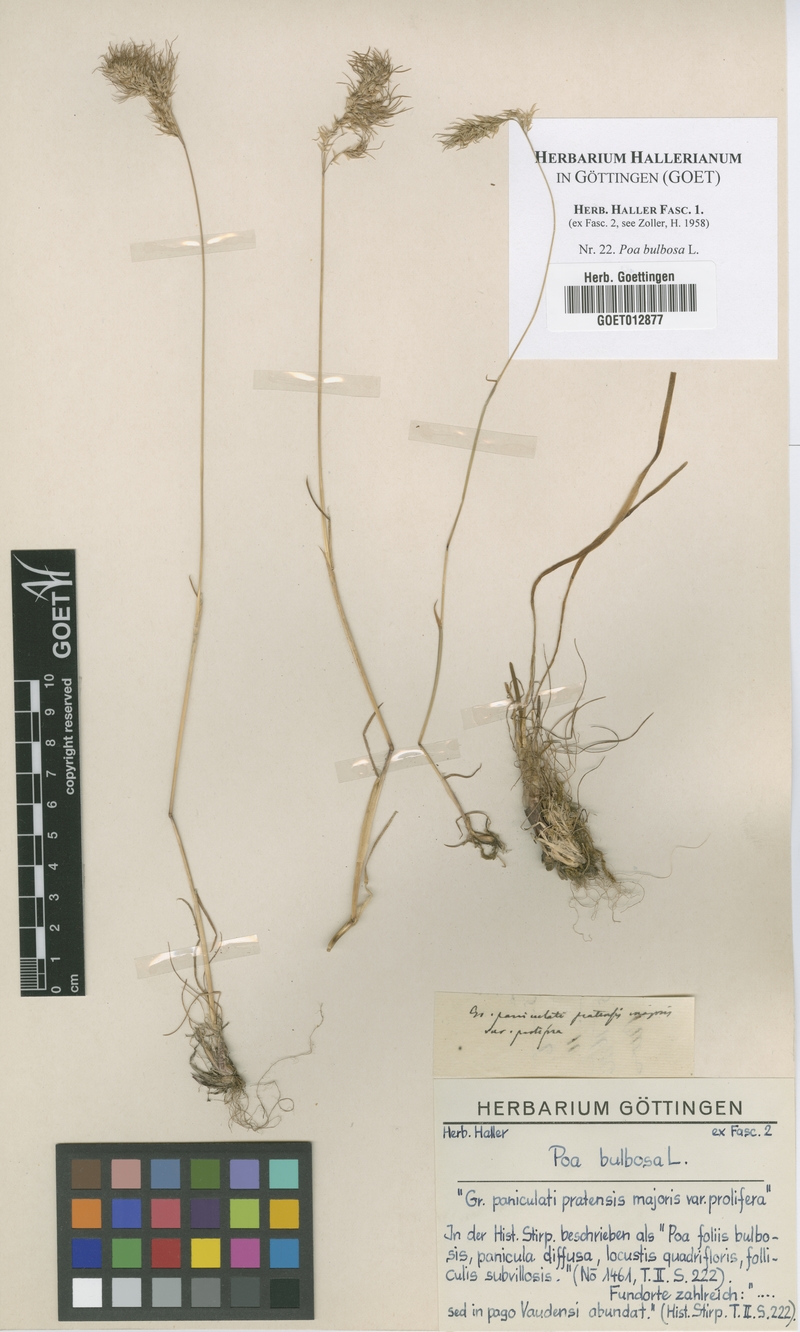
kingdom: Plantae
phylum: Tracheophyta
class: Liliopsida
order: Poales
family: Poaceae
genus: Poa
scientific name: Poa bulbosa
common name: Bulbous bluegrass
